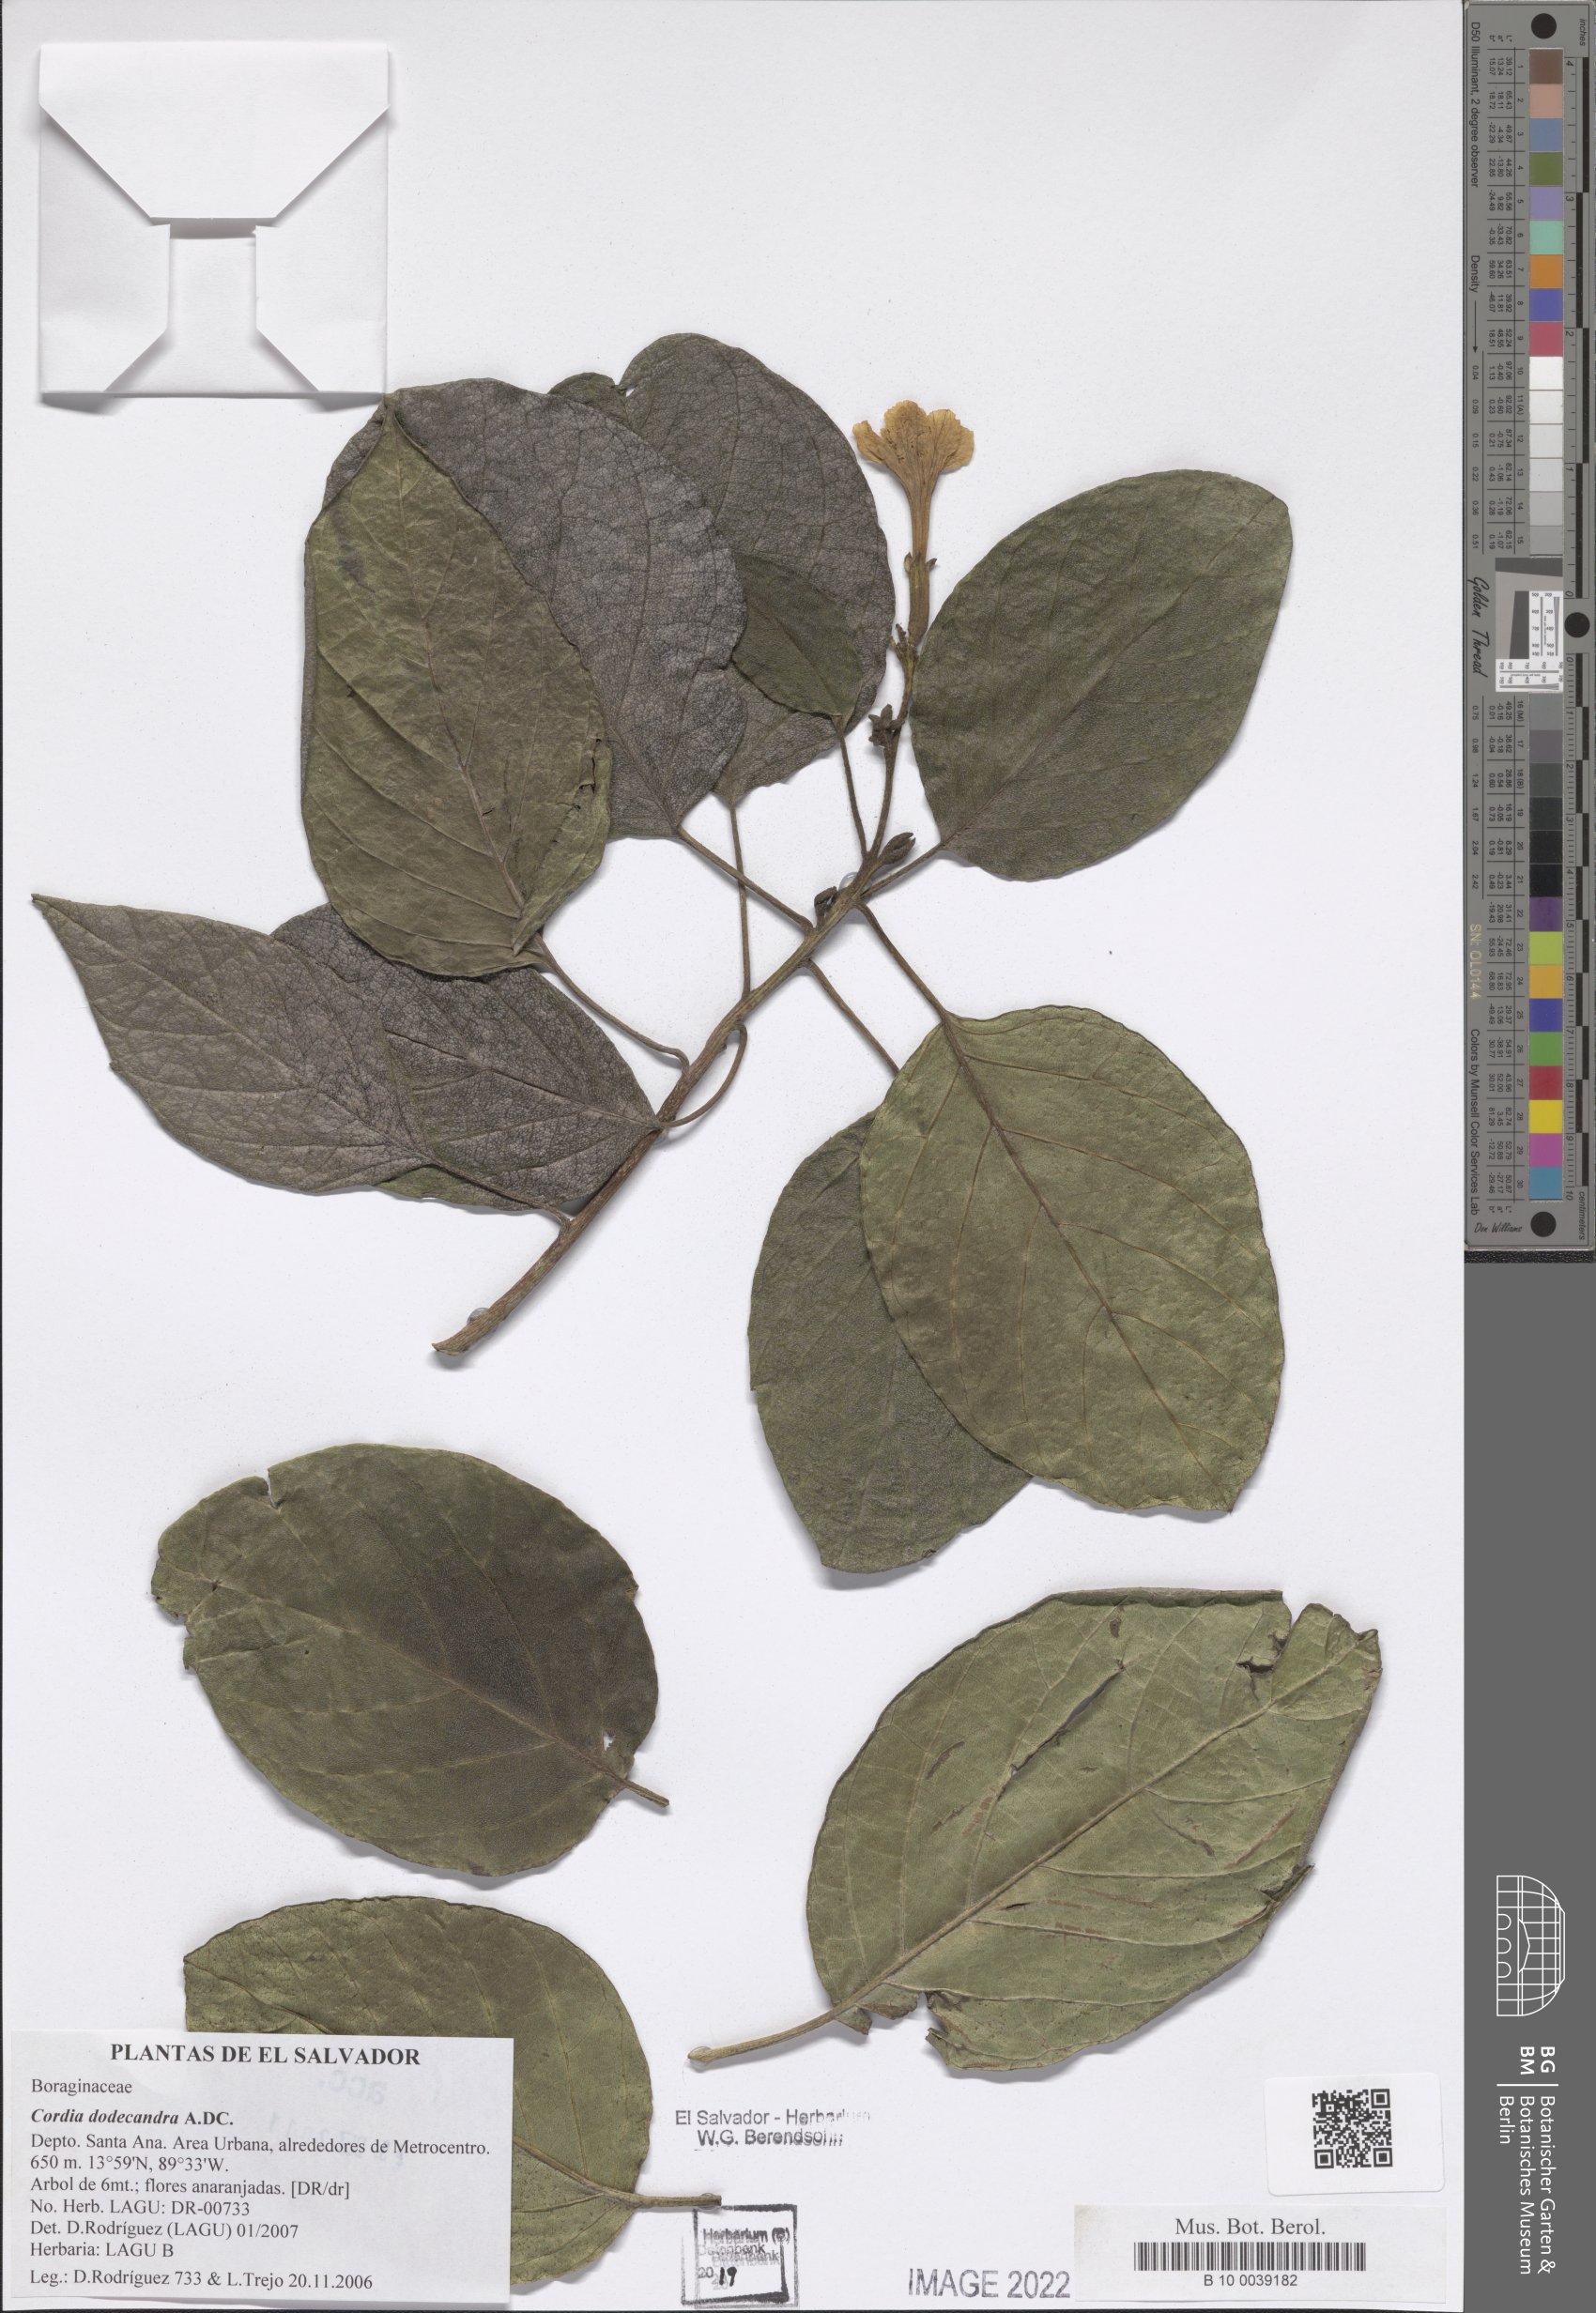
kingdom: Plantae
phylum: Tracheophyta
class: Magnoliopsida
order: Boraginales
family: Cordiaceae
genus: Cordia
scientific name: Cordia dodecandra
